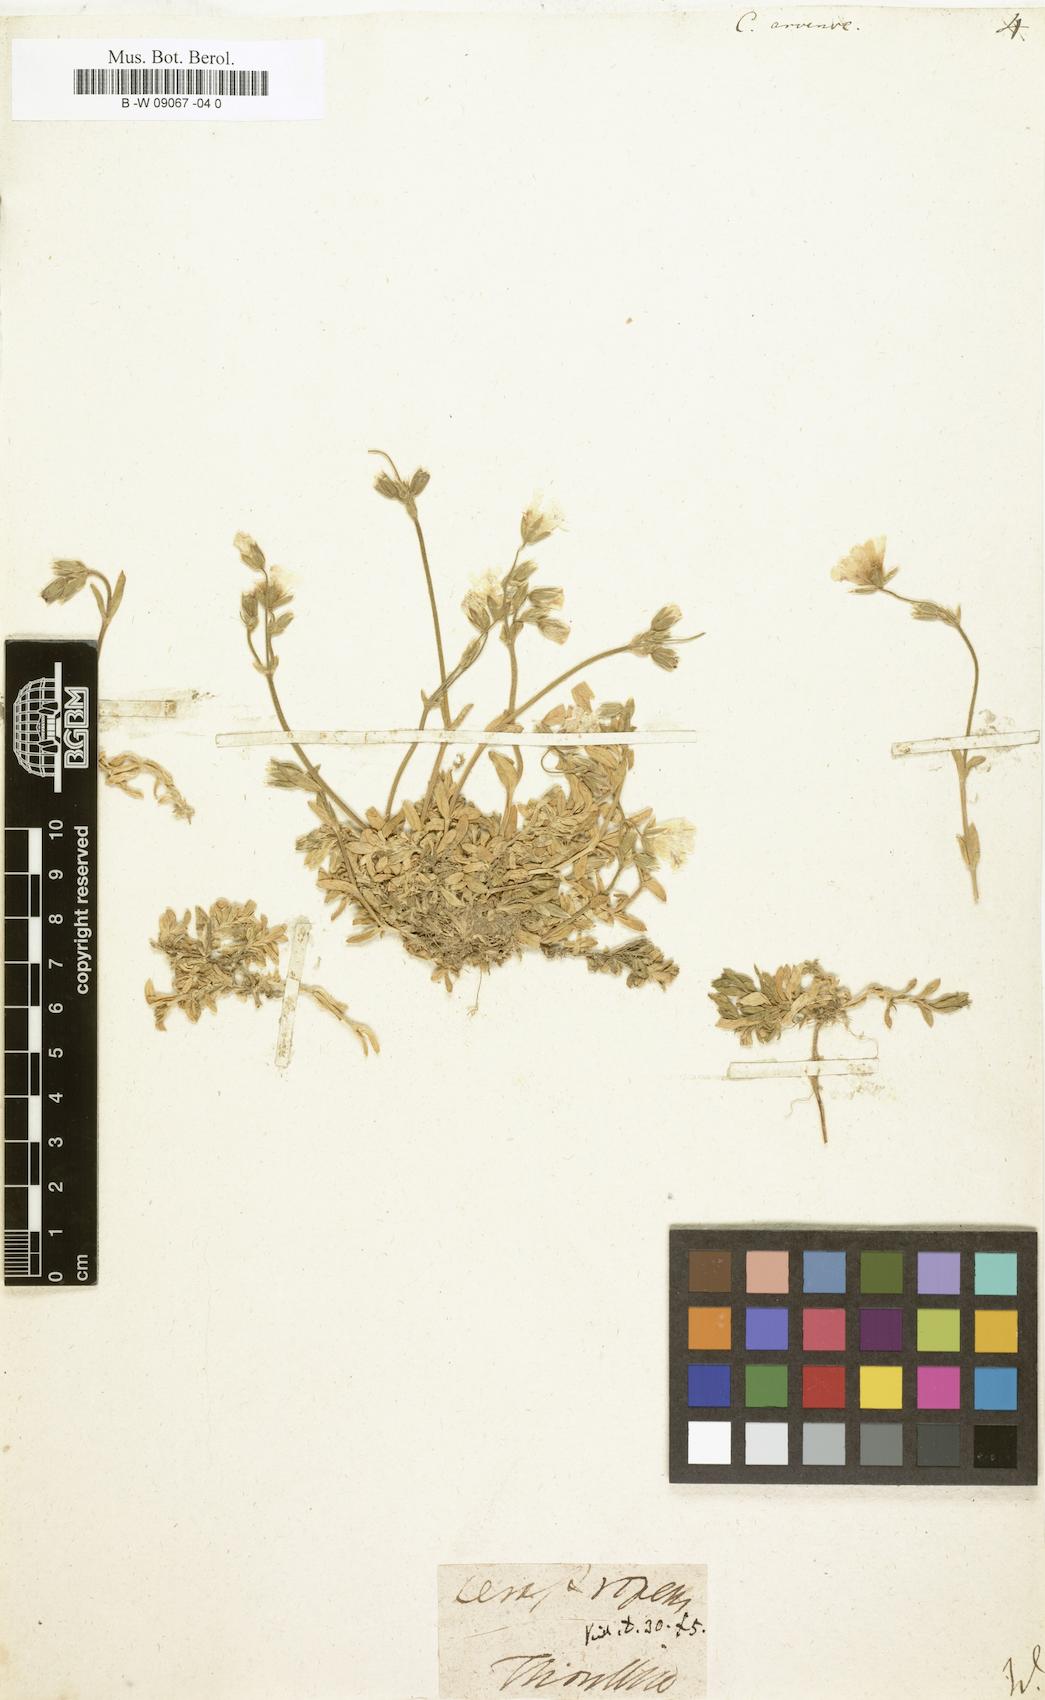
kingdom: Plantae
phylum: Tracheophyta
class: Magnoliopsida
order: Caryophyllales
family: Caryophyllaceae
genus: Cerastium
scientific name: Cerastium arvense
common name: Field mouse-ear
